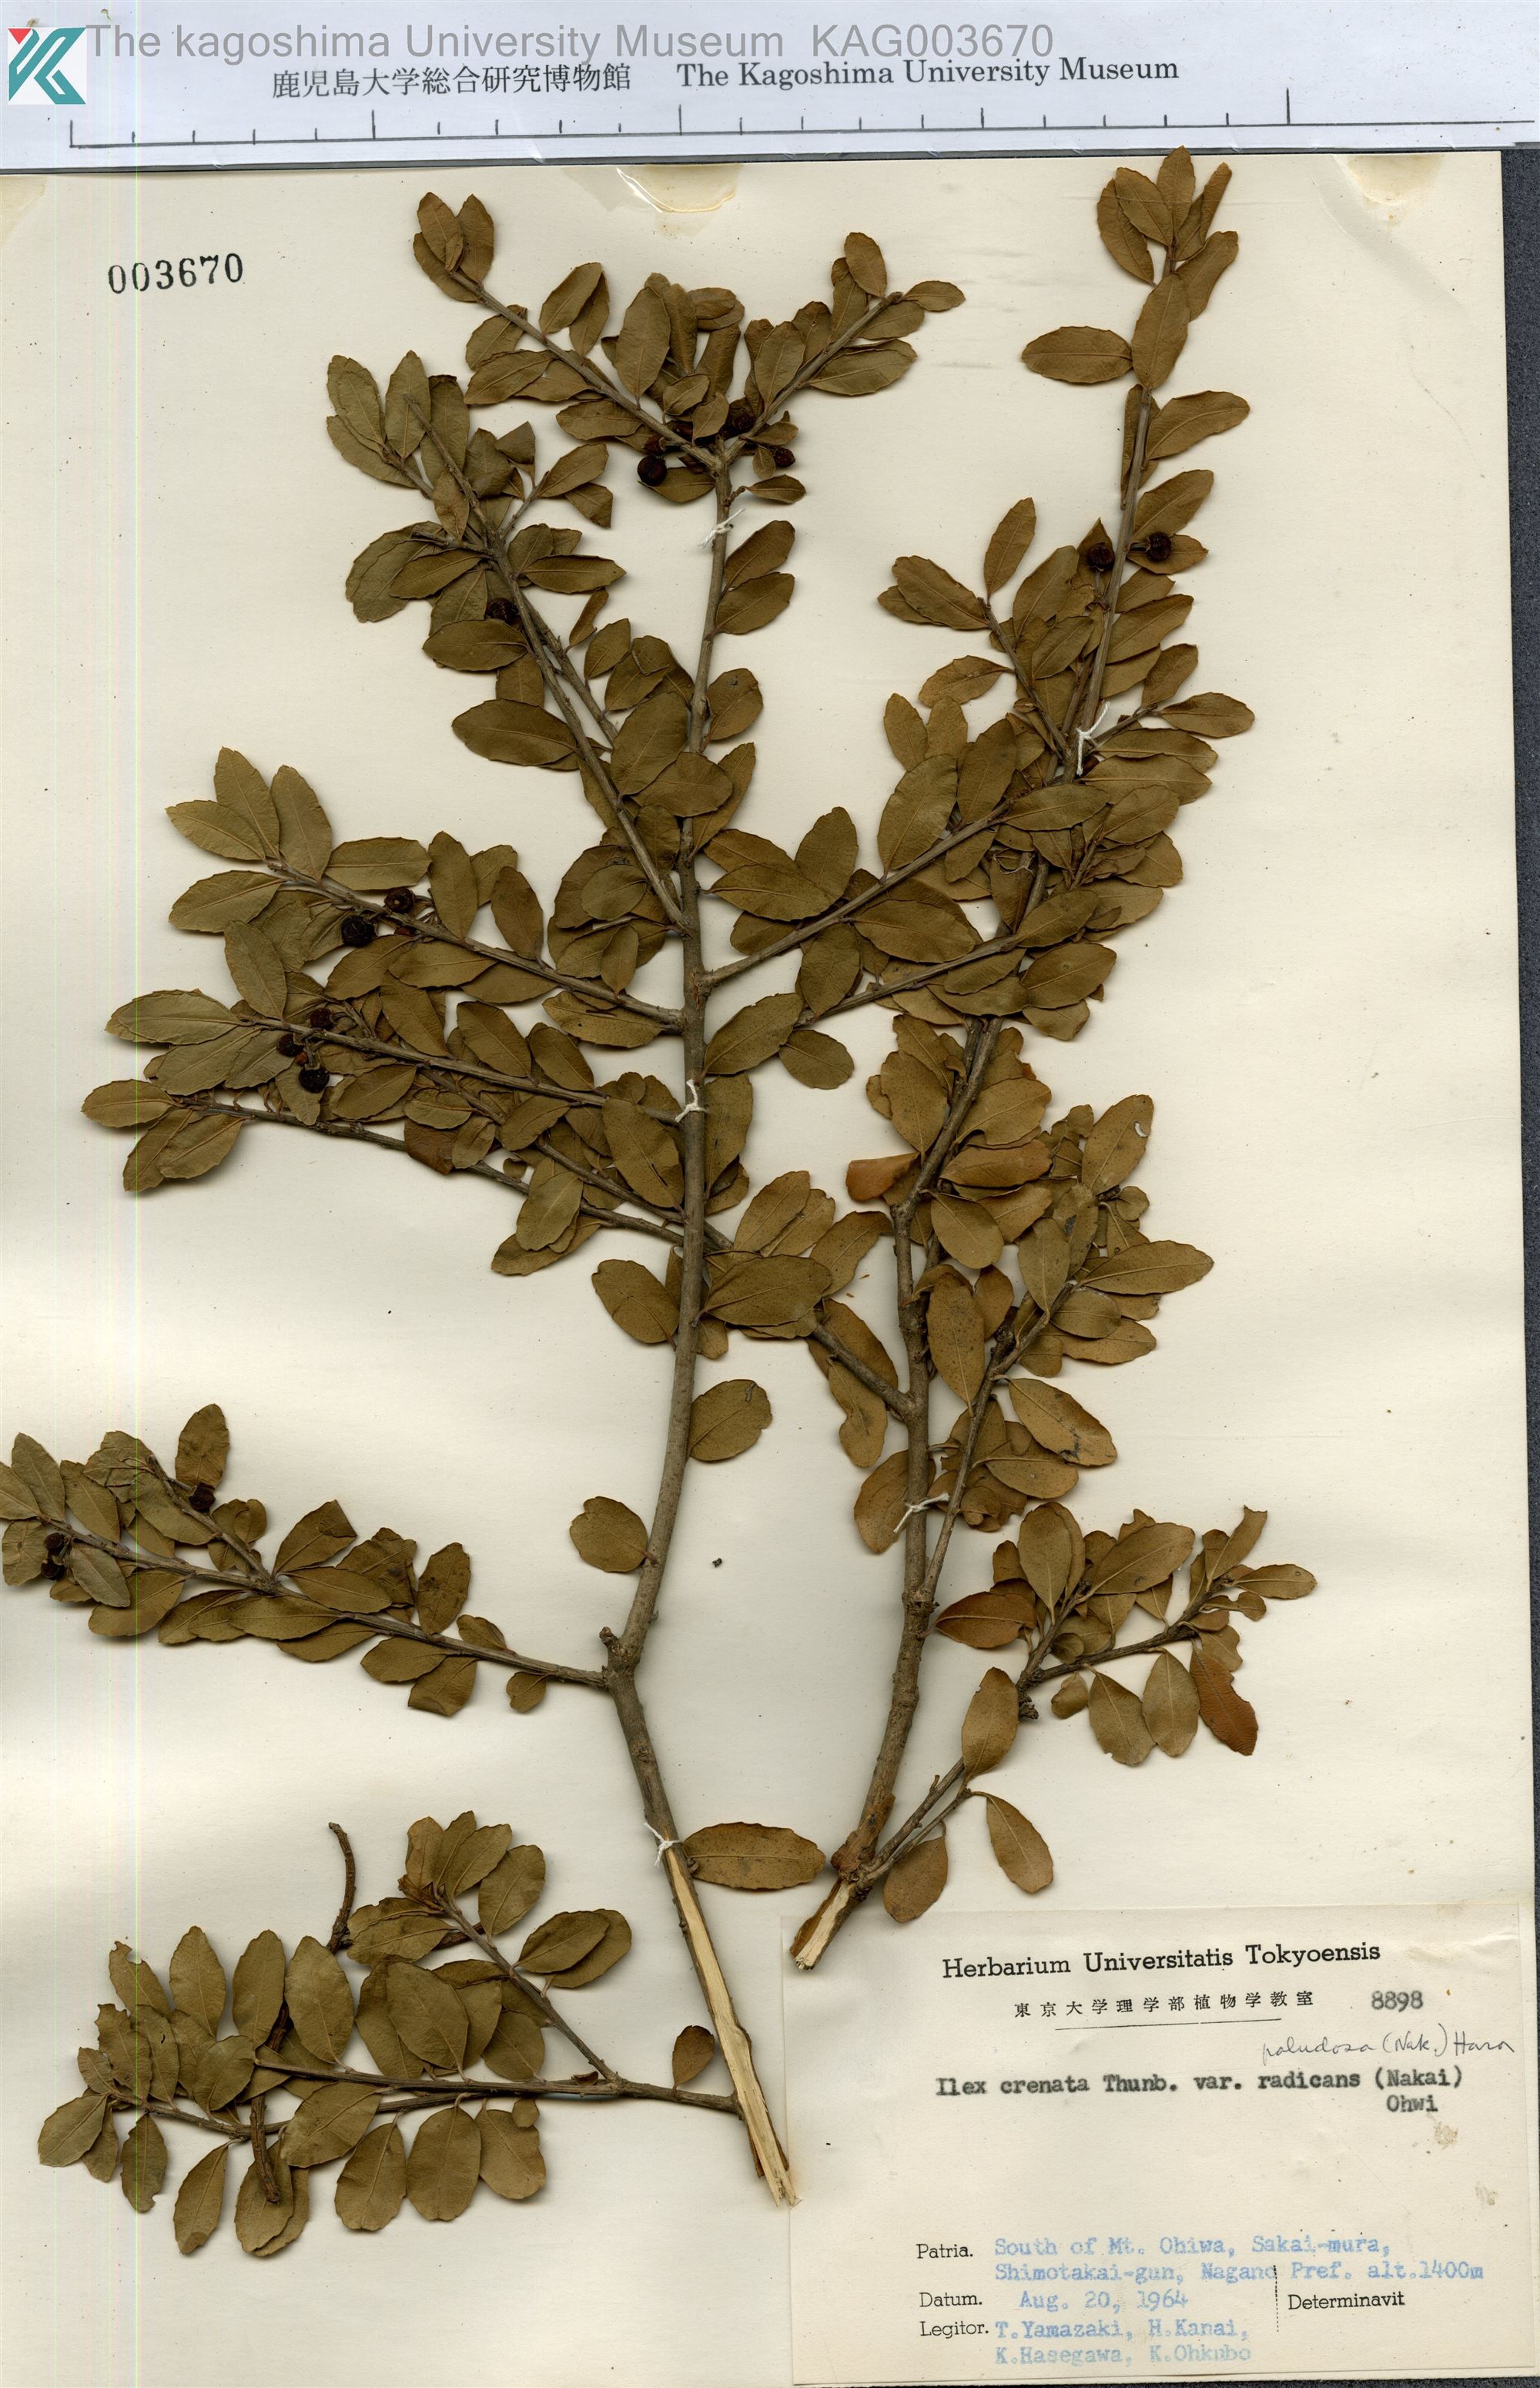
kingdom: Plantae
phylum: Tracheophyta
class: Magnoliopsida
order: Aquifoliales
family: Aquifoliaceae
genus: Ilex
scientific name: Ilex crenata
